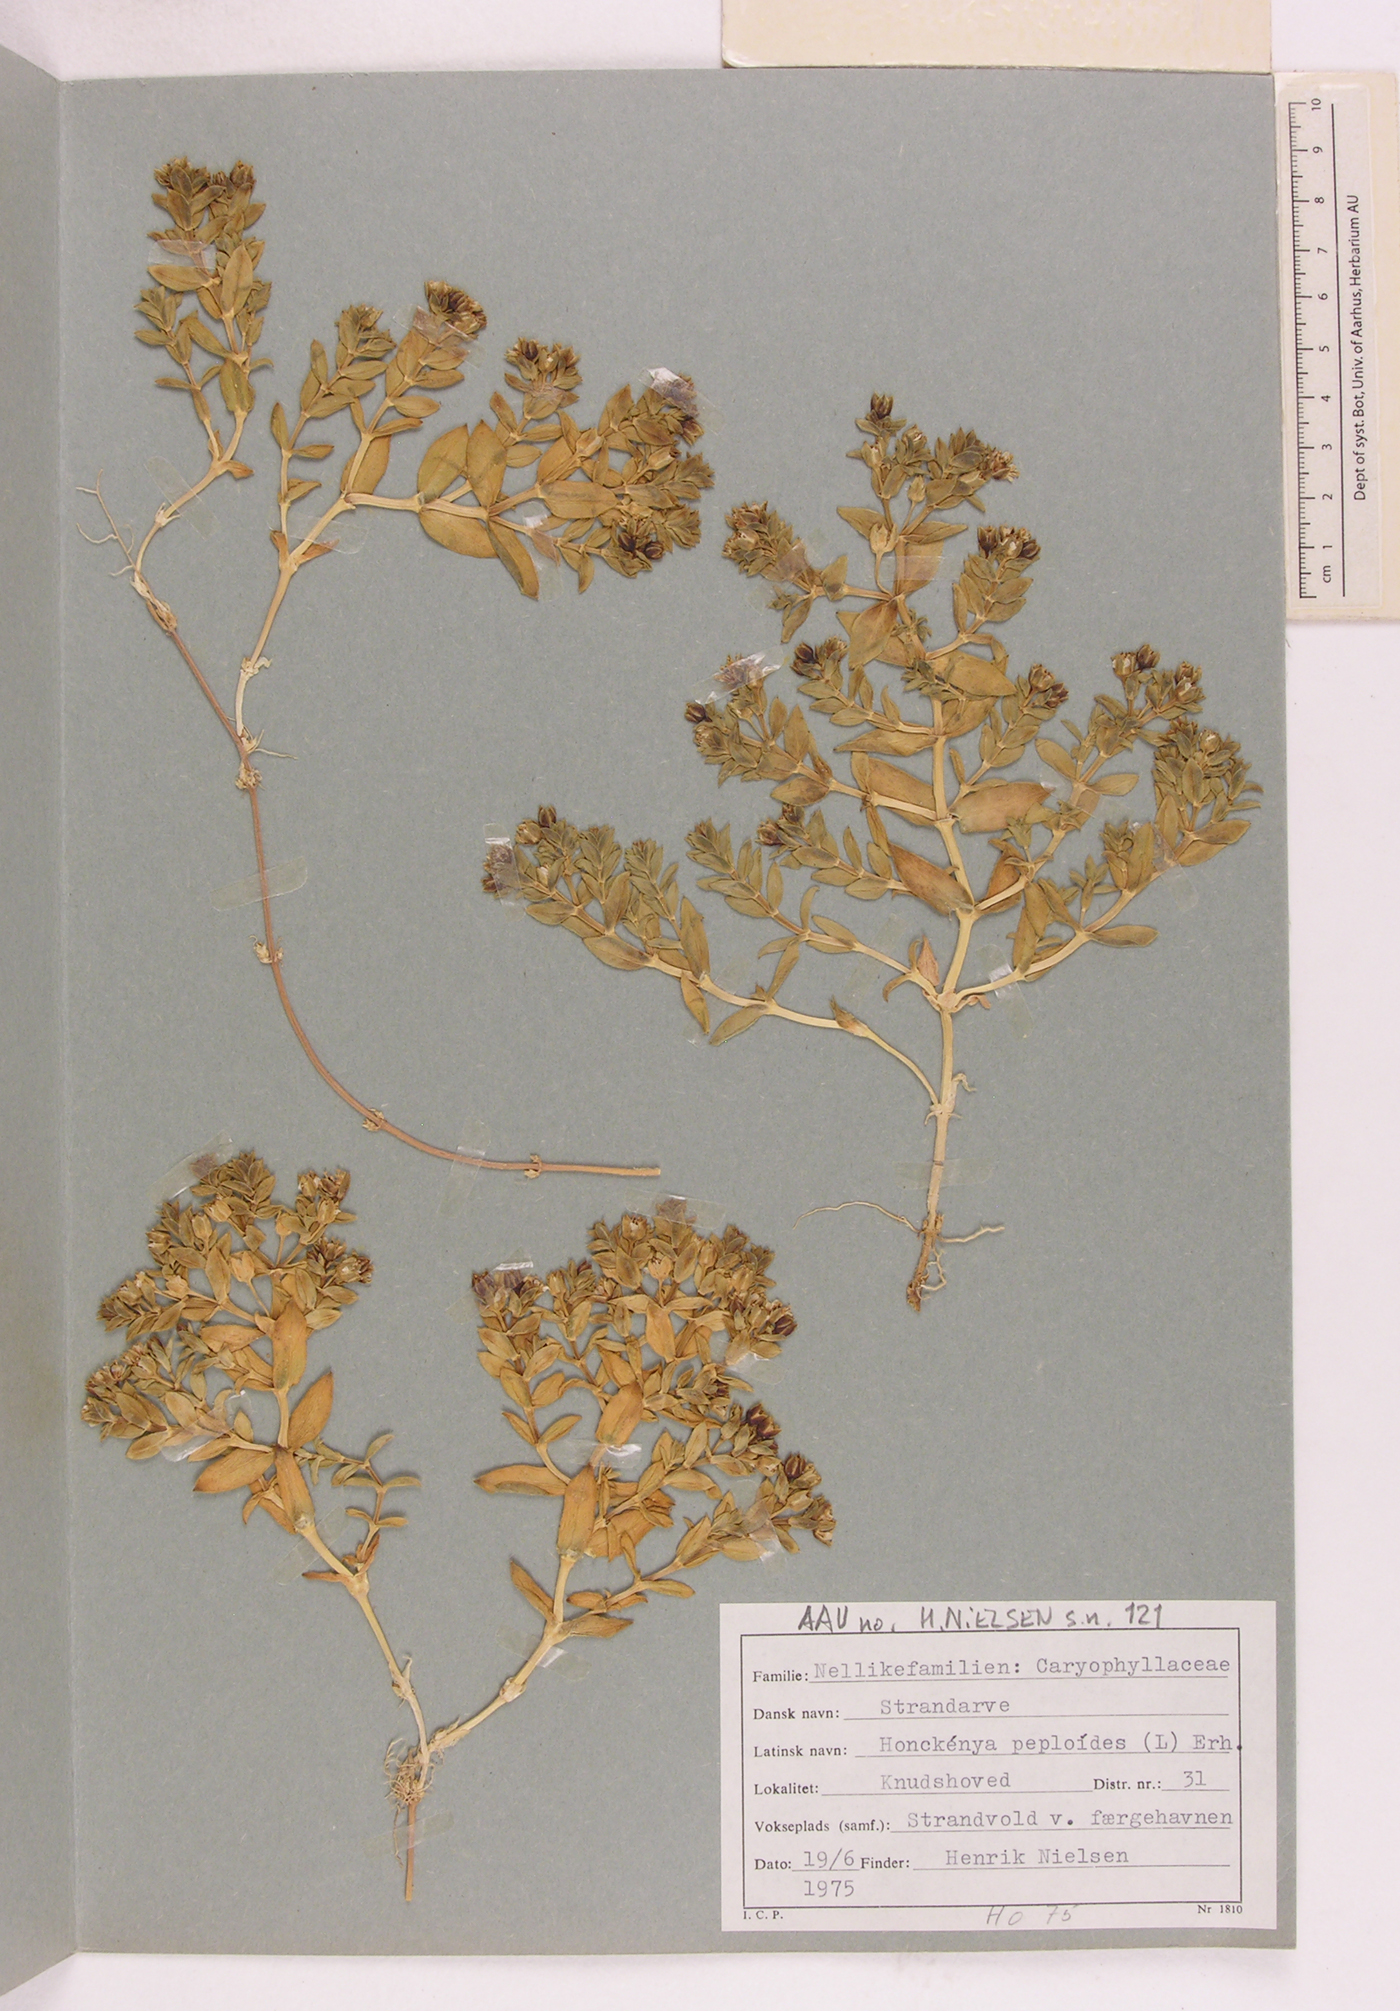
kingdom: Plantae
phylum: Tracheophyta
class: Magnoliopsida
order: Caryophyllales
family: Caryophyllaceae
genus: Honckenya
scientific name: Honckenya peploides
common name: Sea sandwort
